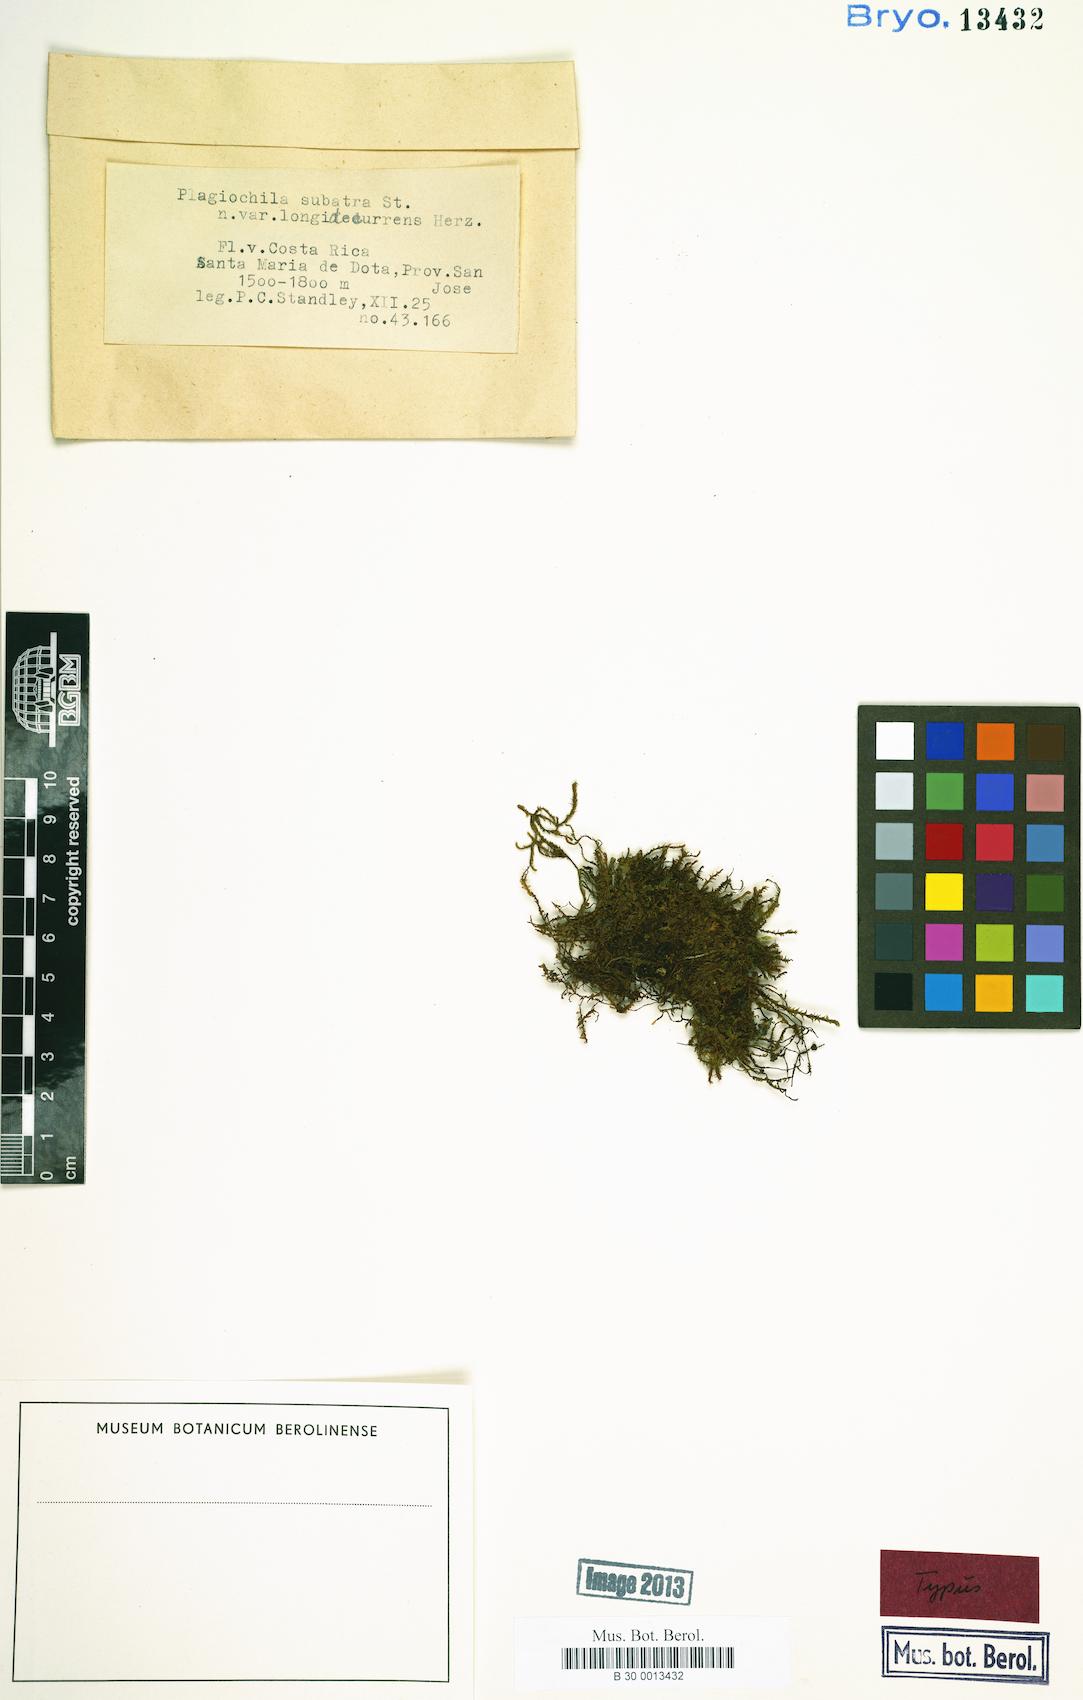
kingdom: Plantae
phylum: Marchantiophyta
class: Jungermanniopsida
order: Jungermanniales
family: Plagiochilaceae
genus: Plagiochila
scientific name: Plagiochila raddiana
